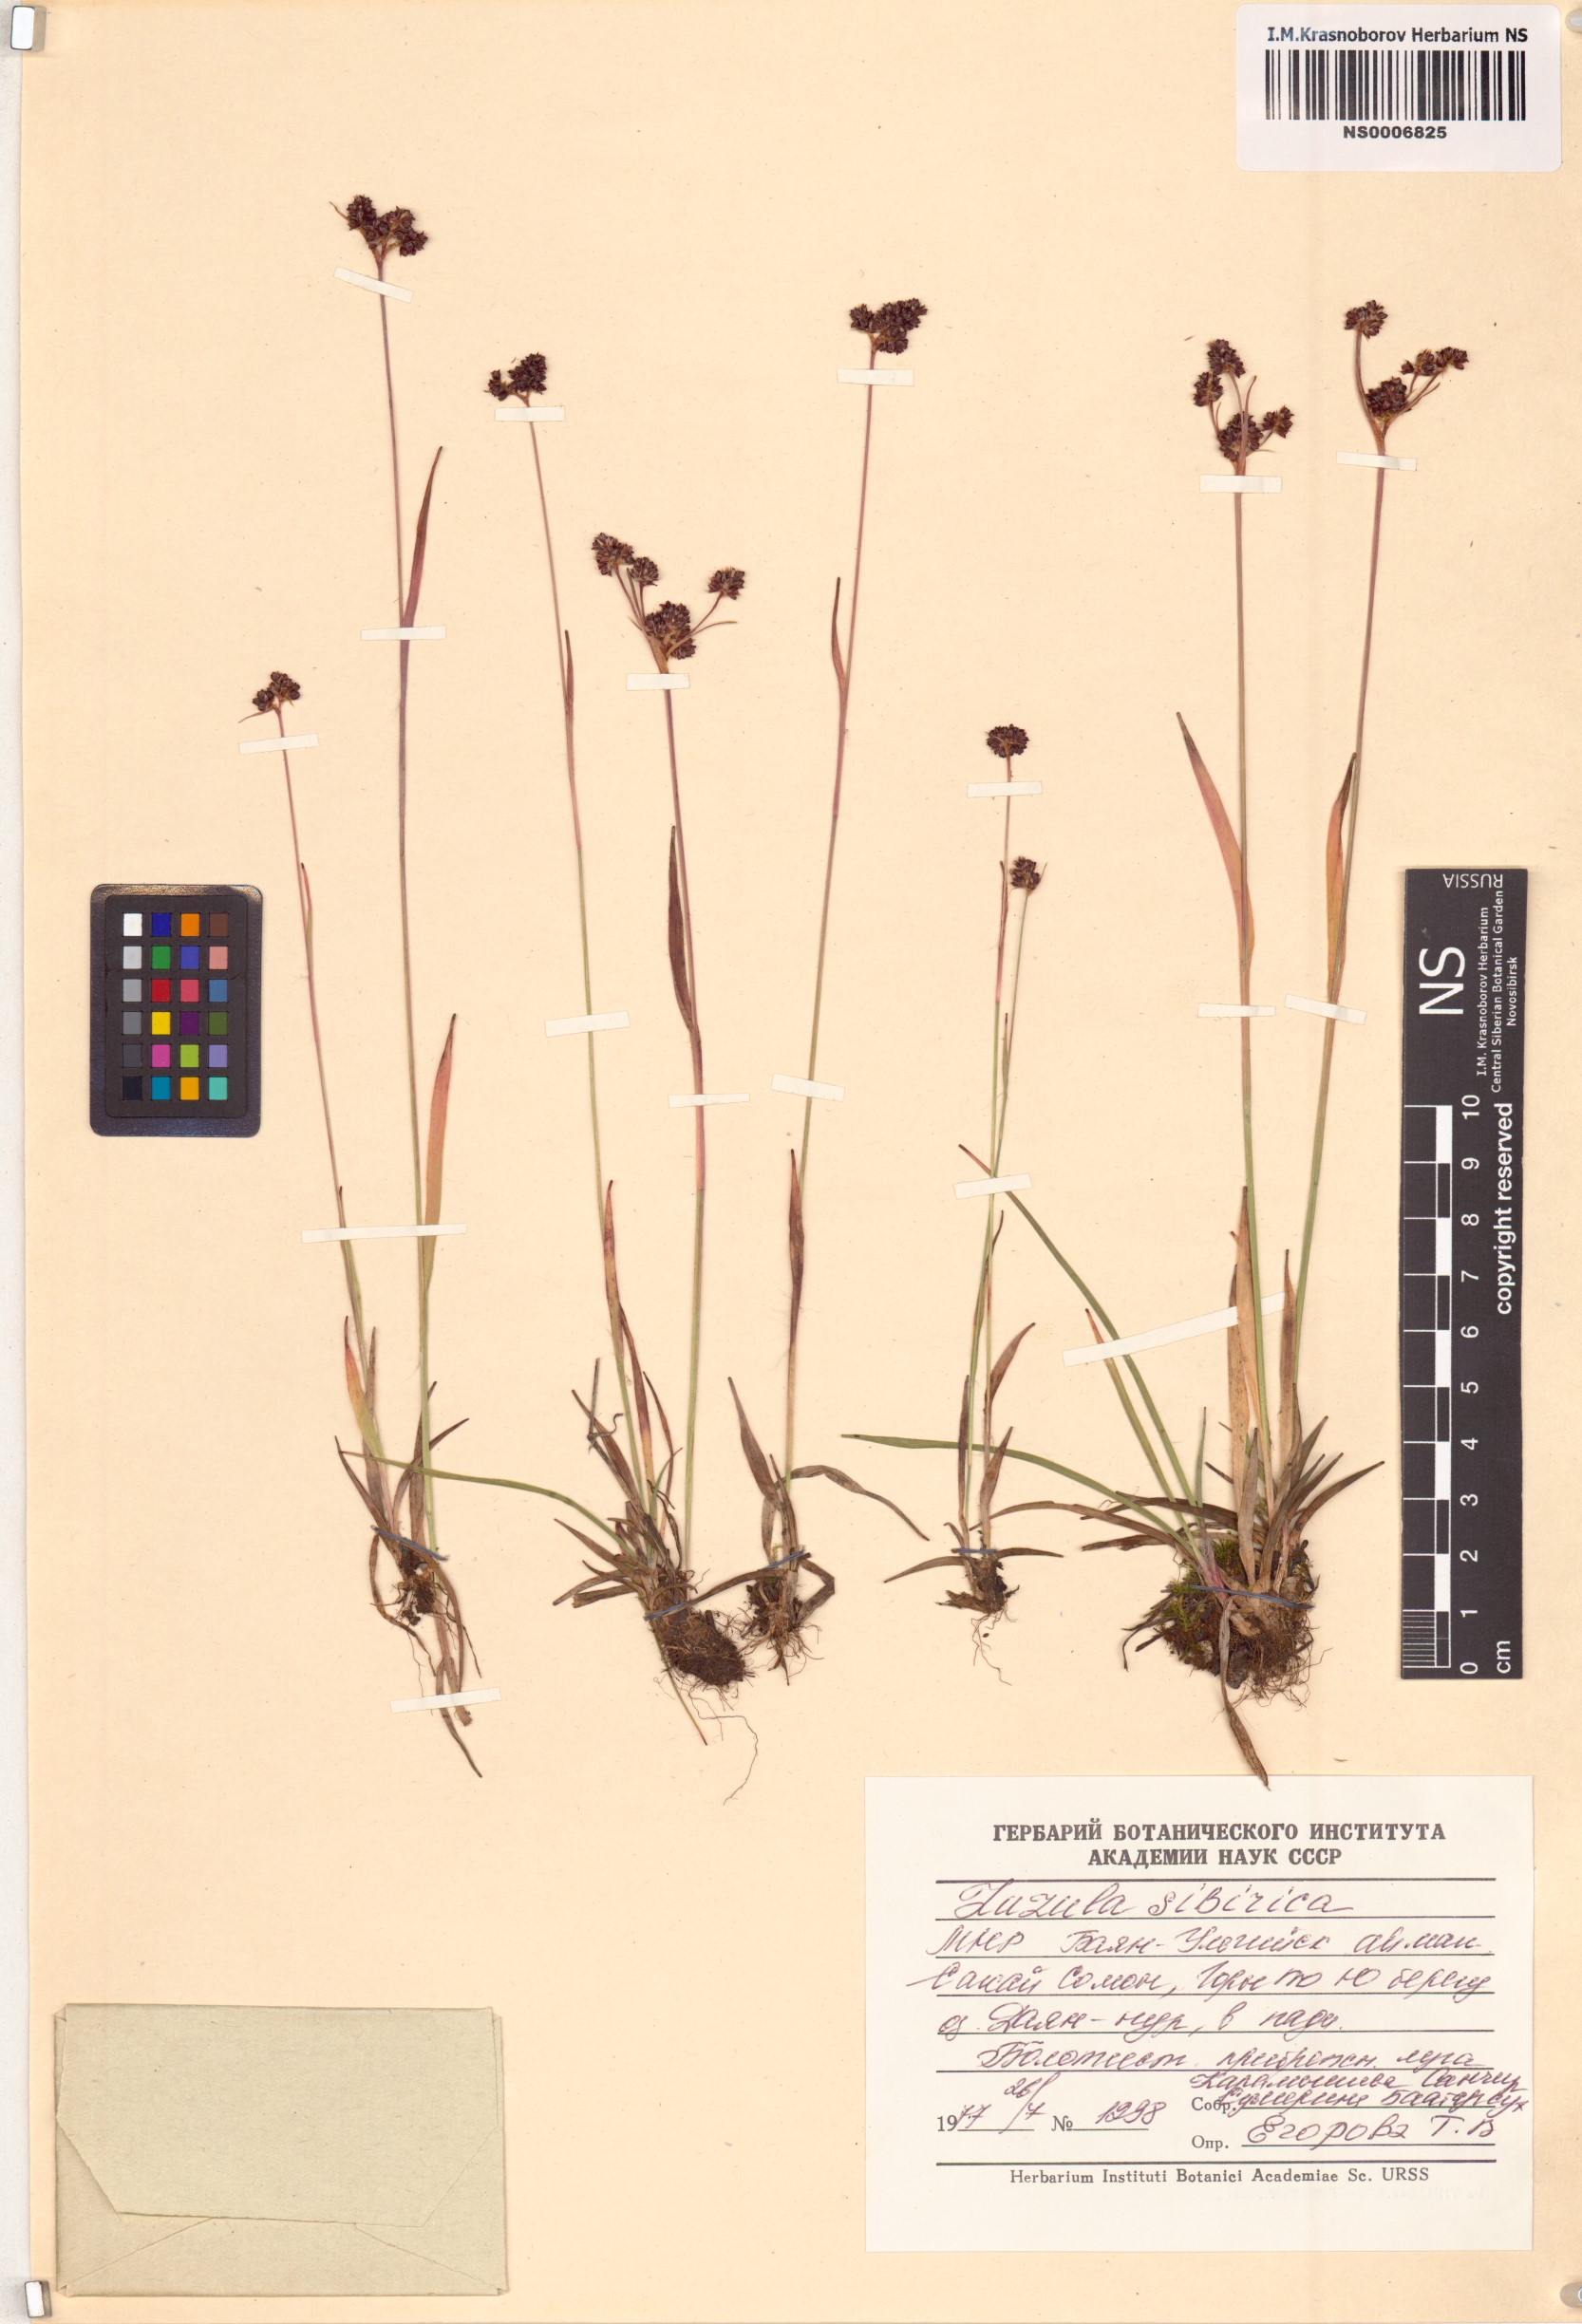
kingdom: Plantae
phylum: Tracheophyta
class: Liliopsida
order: Poales
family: Juncaceae
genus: Luzula
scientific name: Luzula multiflora
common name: Heath wood-rush
